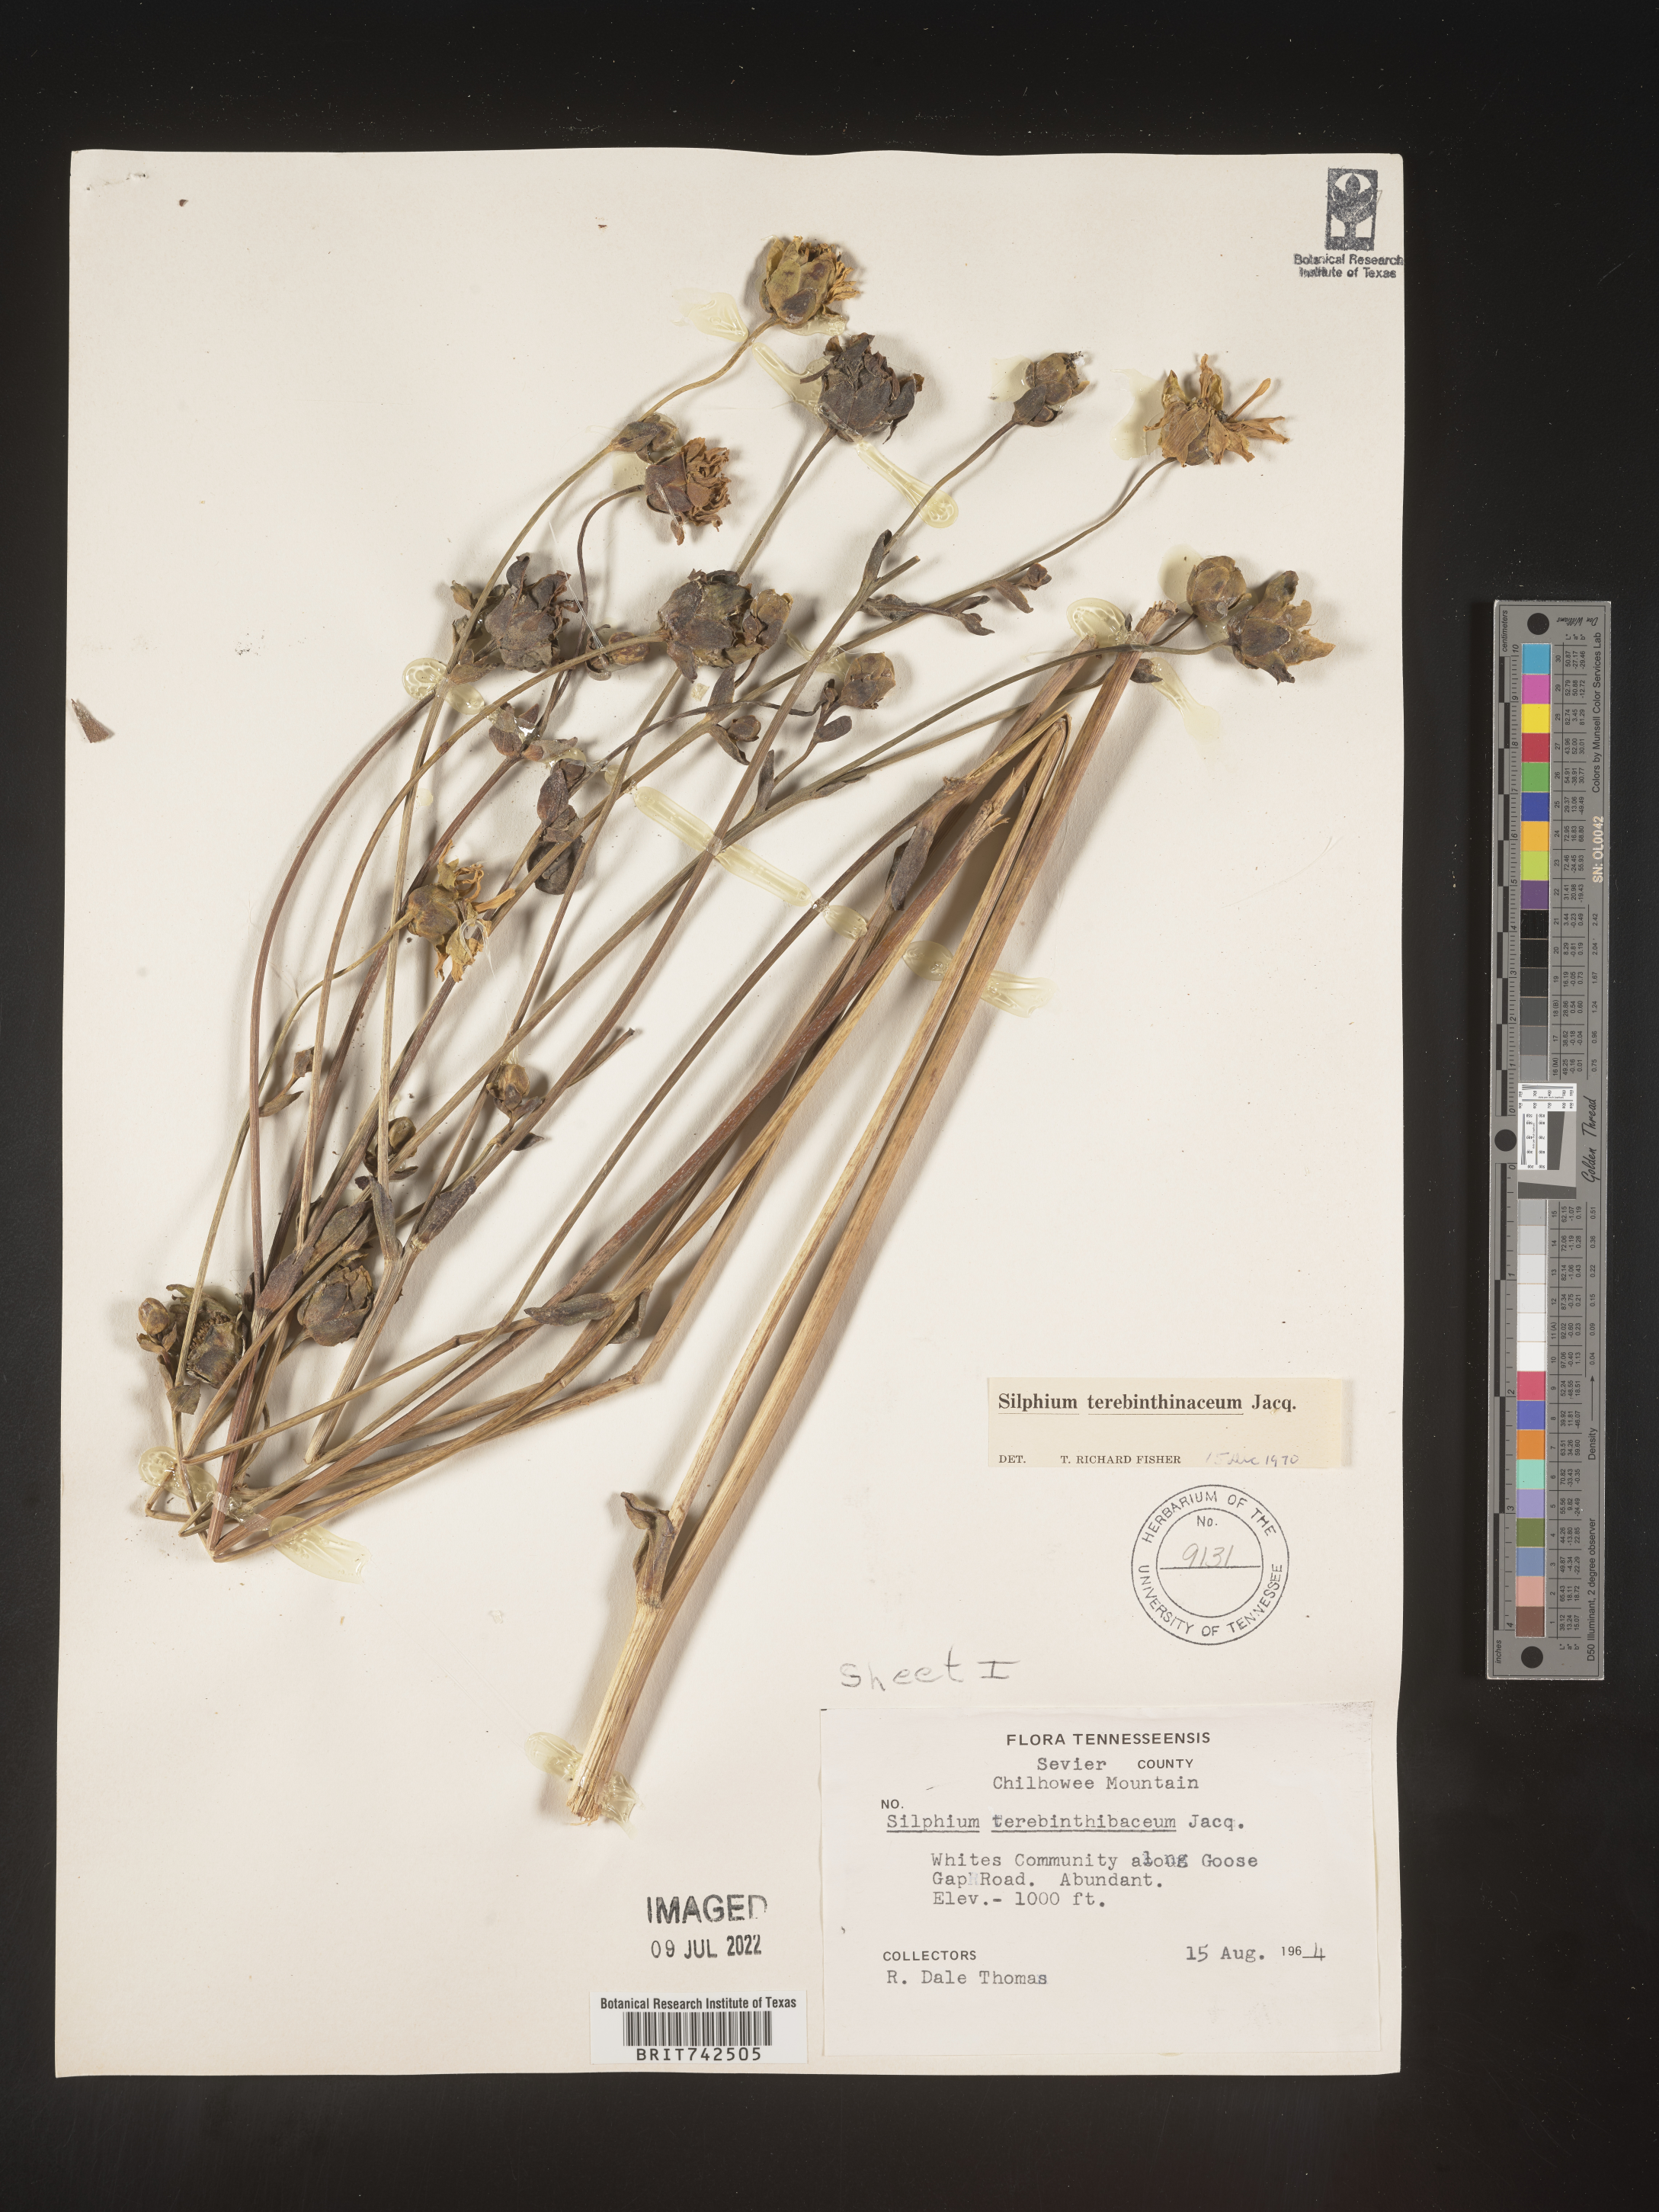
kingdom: Plantae
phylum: Tracheophyta
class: Magnoliopsida
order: Asterales
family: Asteraceae
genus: Silphium
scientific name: Silphium terebinthinaceum
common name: Basal-leaf rosinweed
